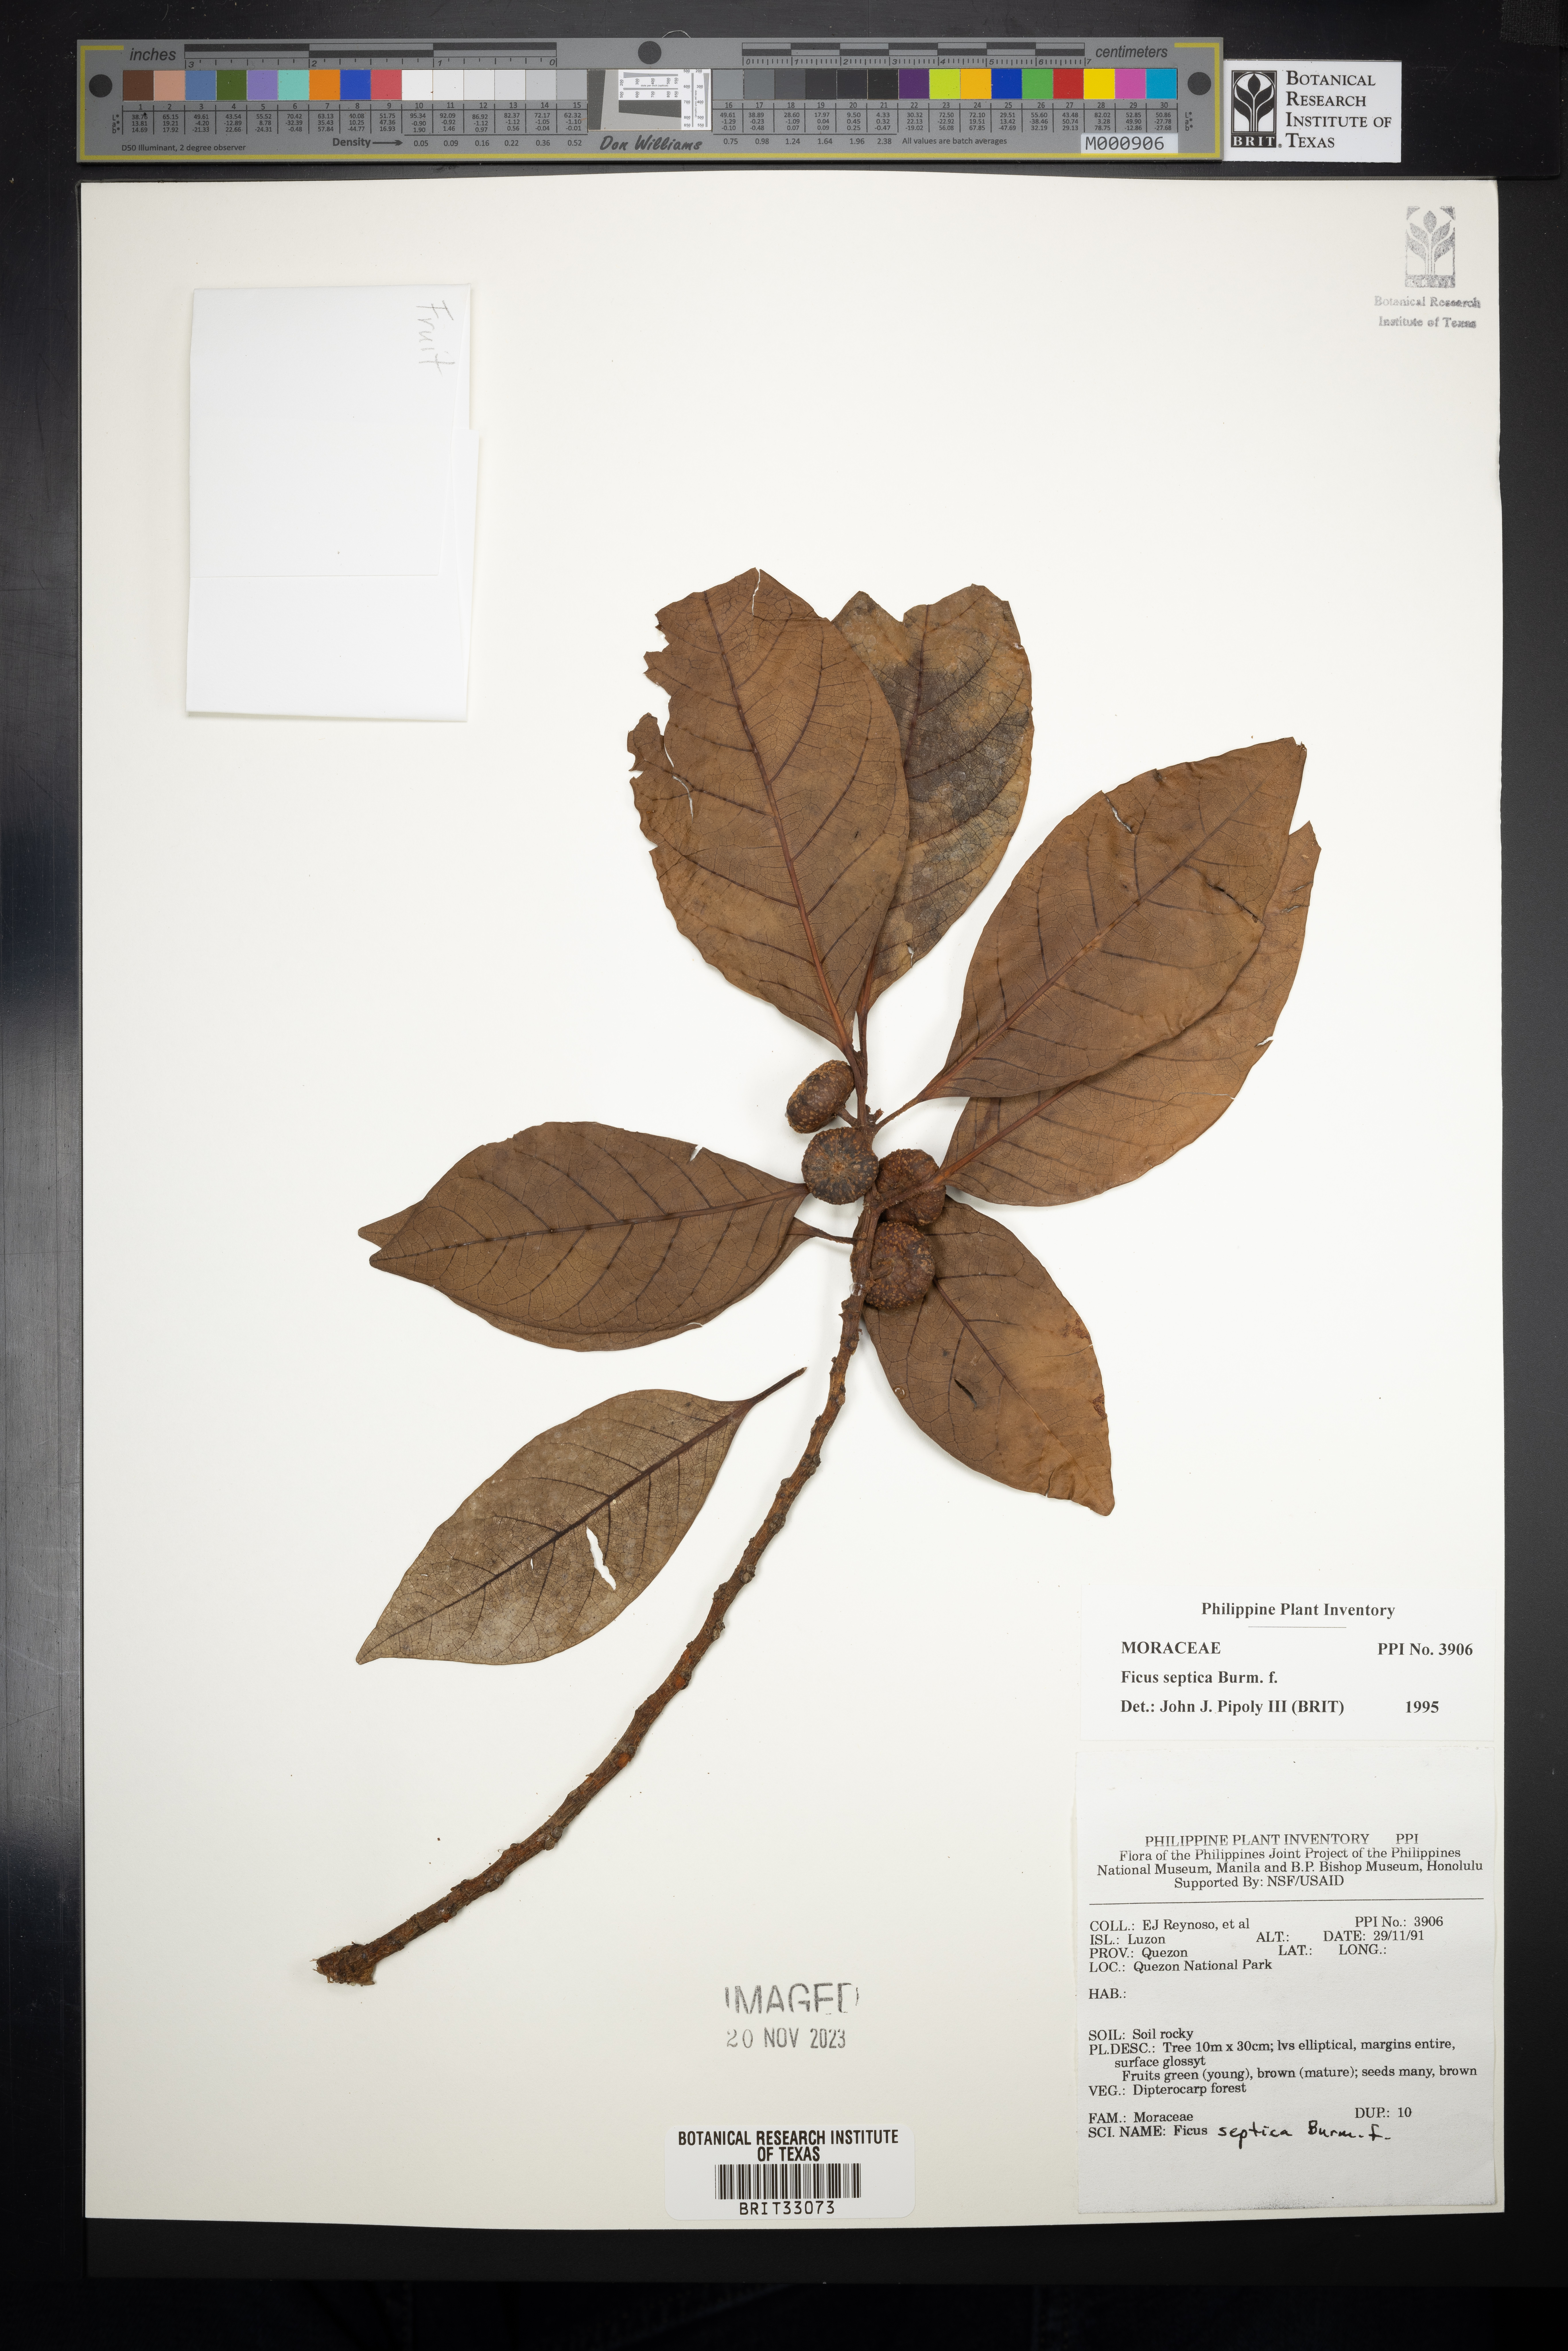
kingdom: Plantae
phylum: Tracheophyta
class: Magnoliopsida
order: Rosales
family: Moraceae
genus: Ficus
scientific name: Ficus septica
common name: Septic fig
